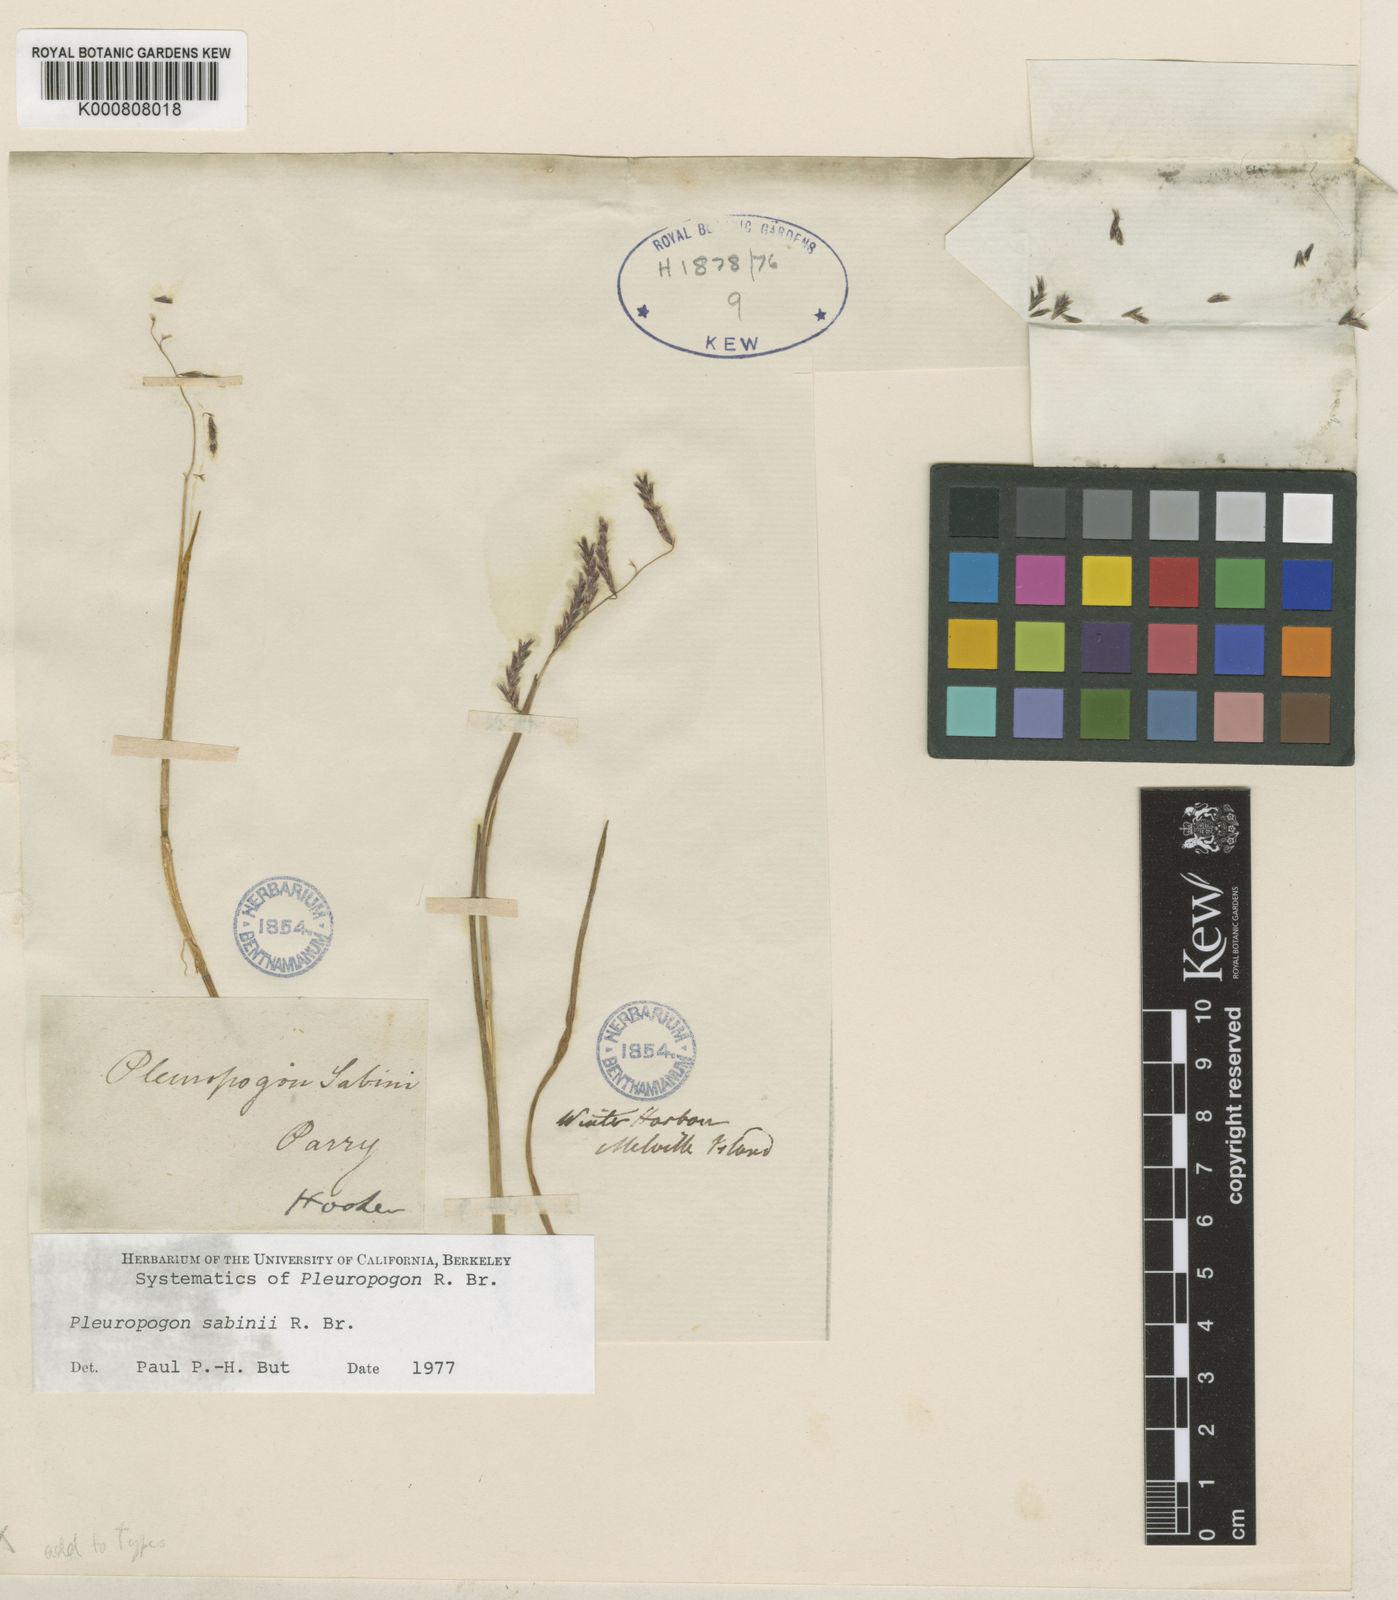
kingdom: Plantae
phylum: Tracheophyta
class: Liliopsida
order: Poales
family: Poaceae
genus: Pleuropogon
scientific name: Pleuropogon sabinei
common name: Sabine's false semaphoregrass
